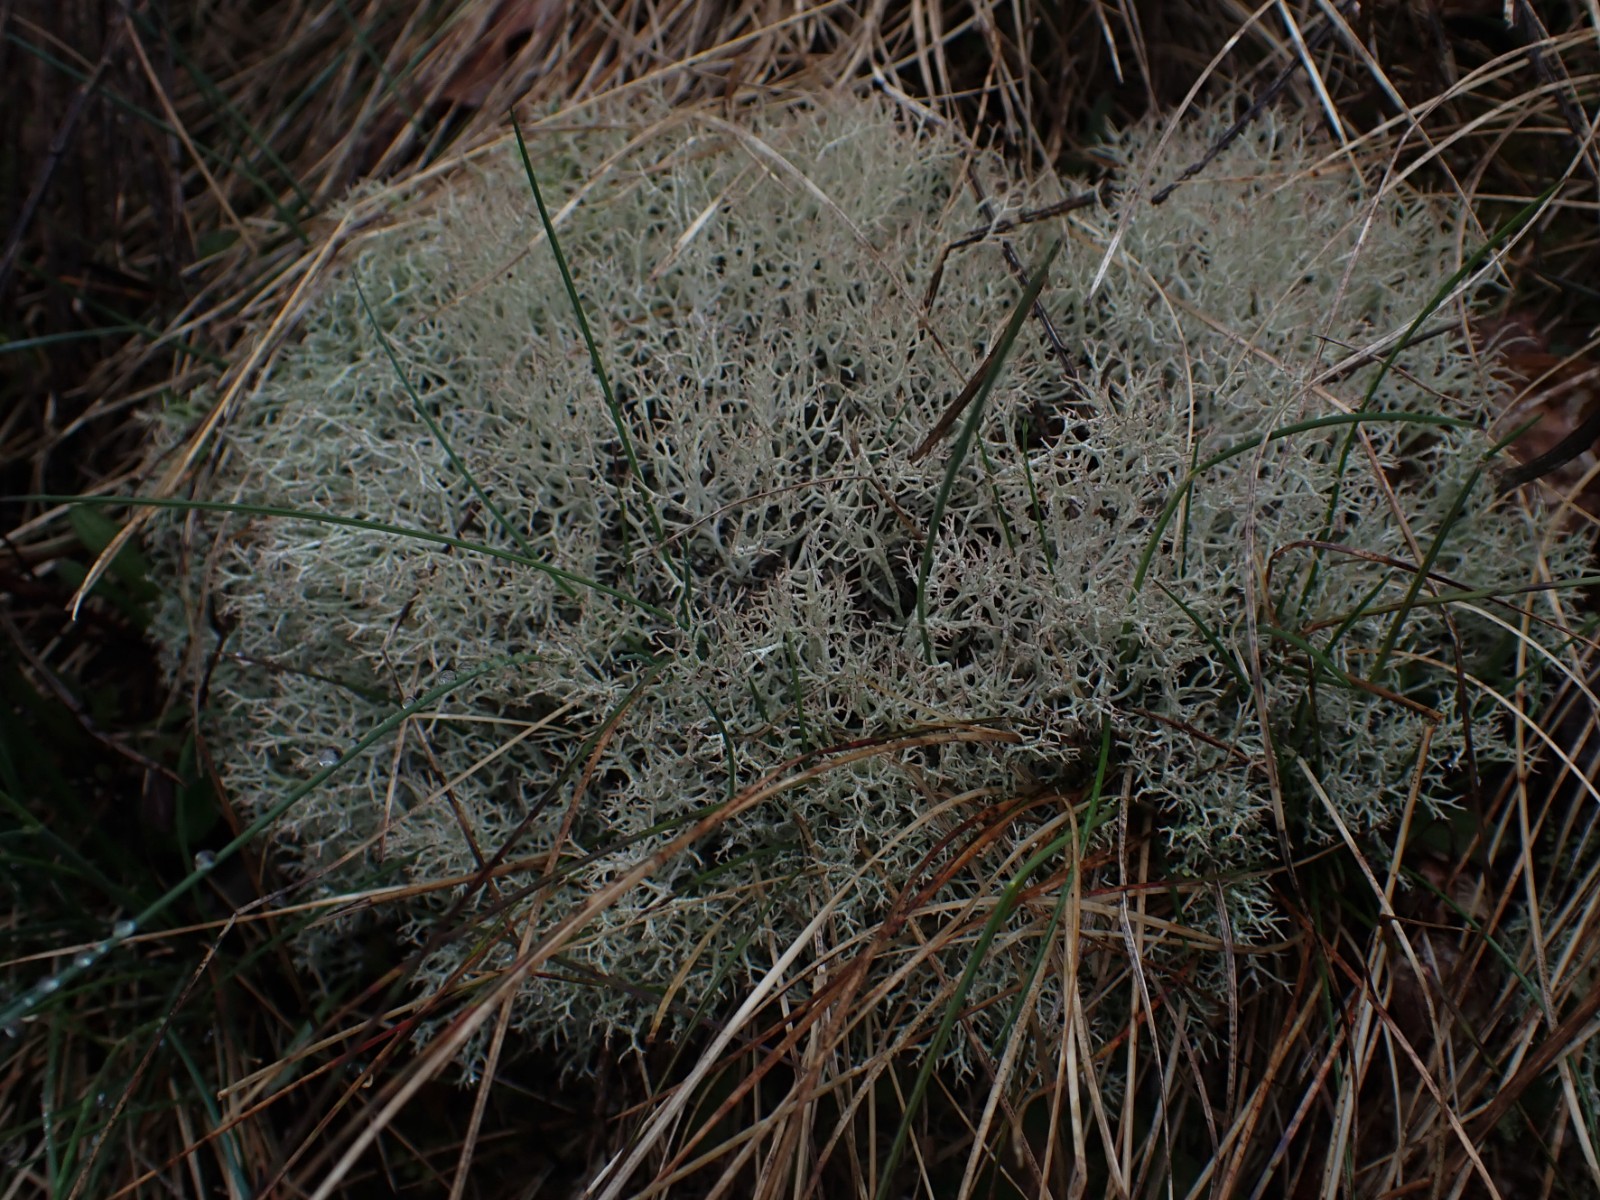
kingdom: Fungi
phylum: Ascomycota
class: Lecanoromycetes
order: Lecanorales
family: Cladoniaceae
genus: Cladonia
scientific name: Cladonia rangiformis
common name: spættet bægerlav
